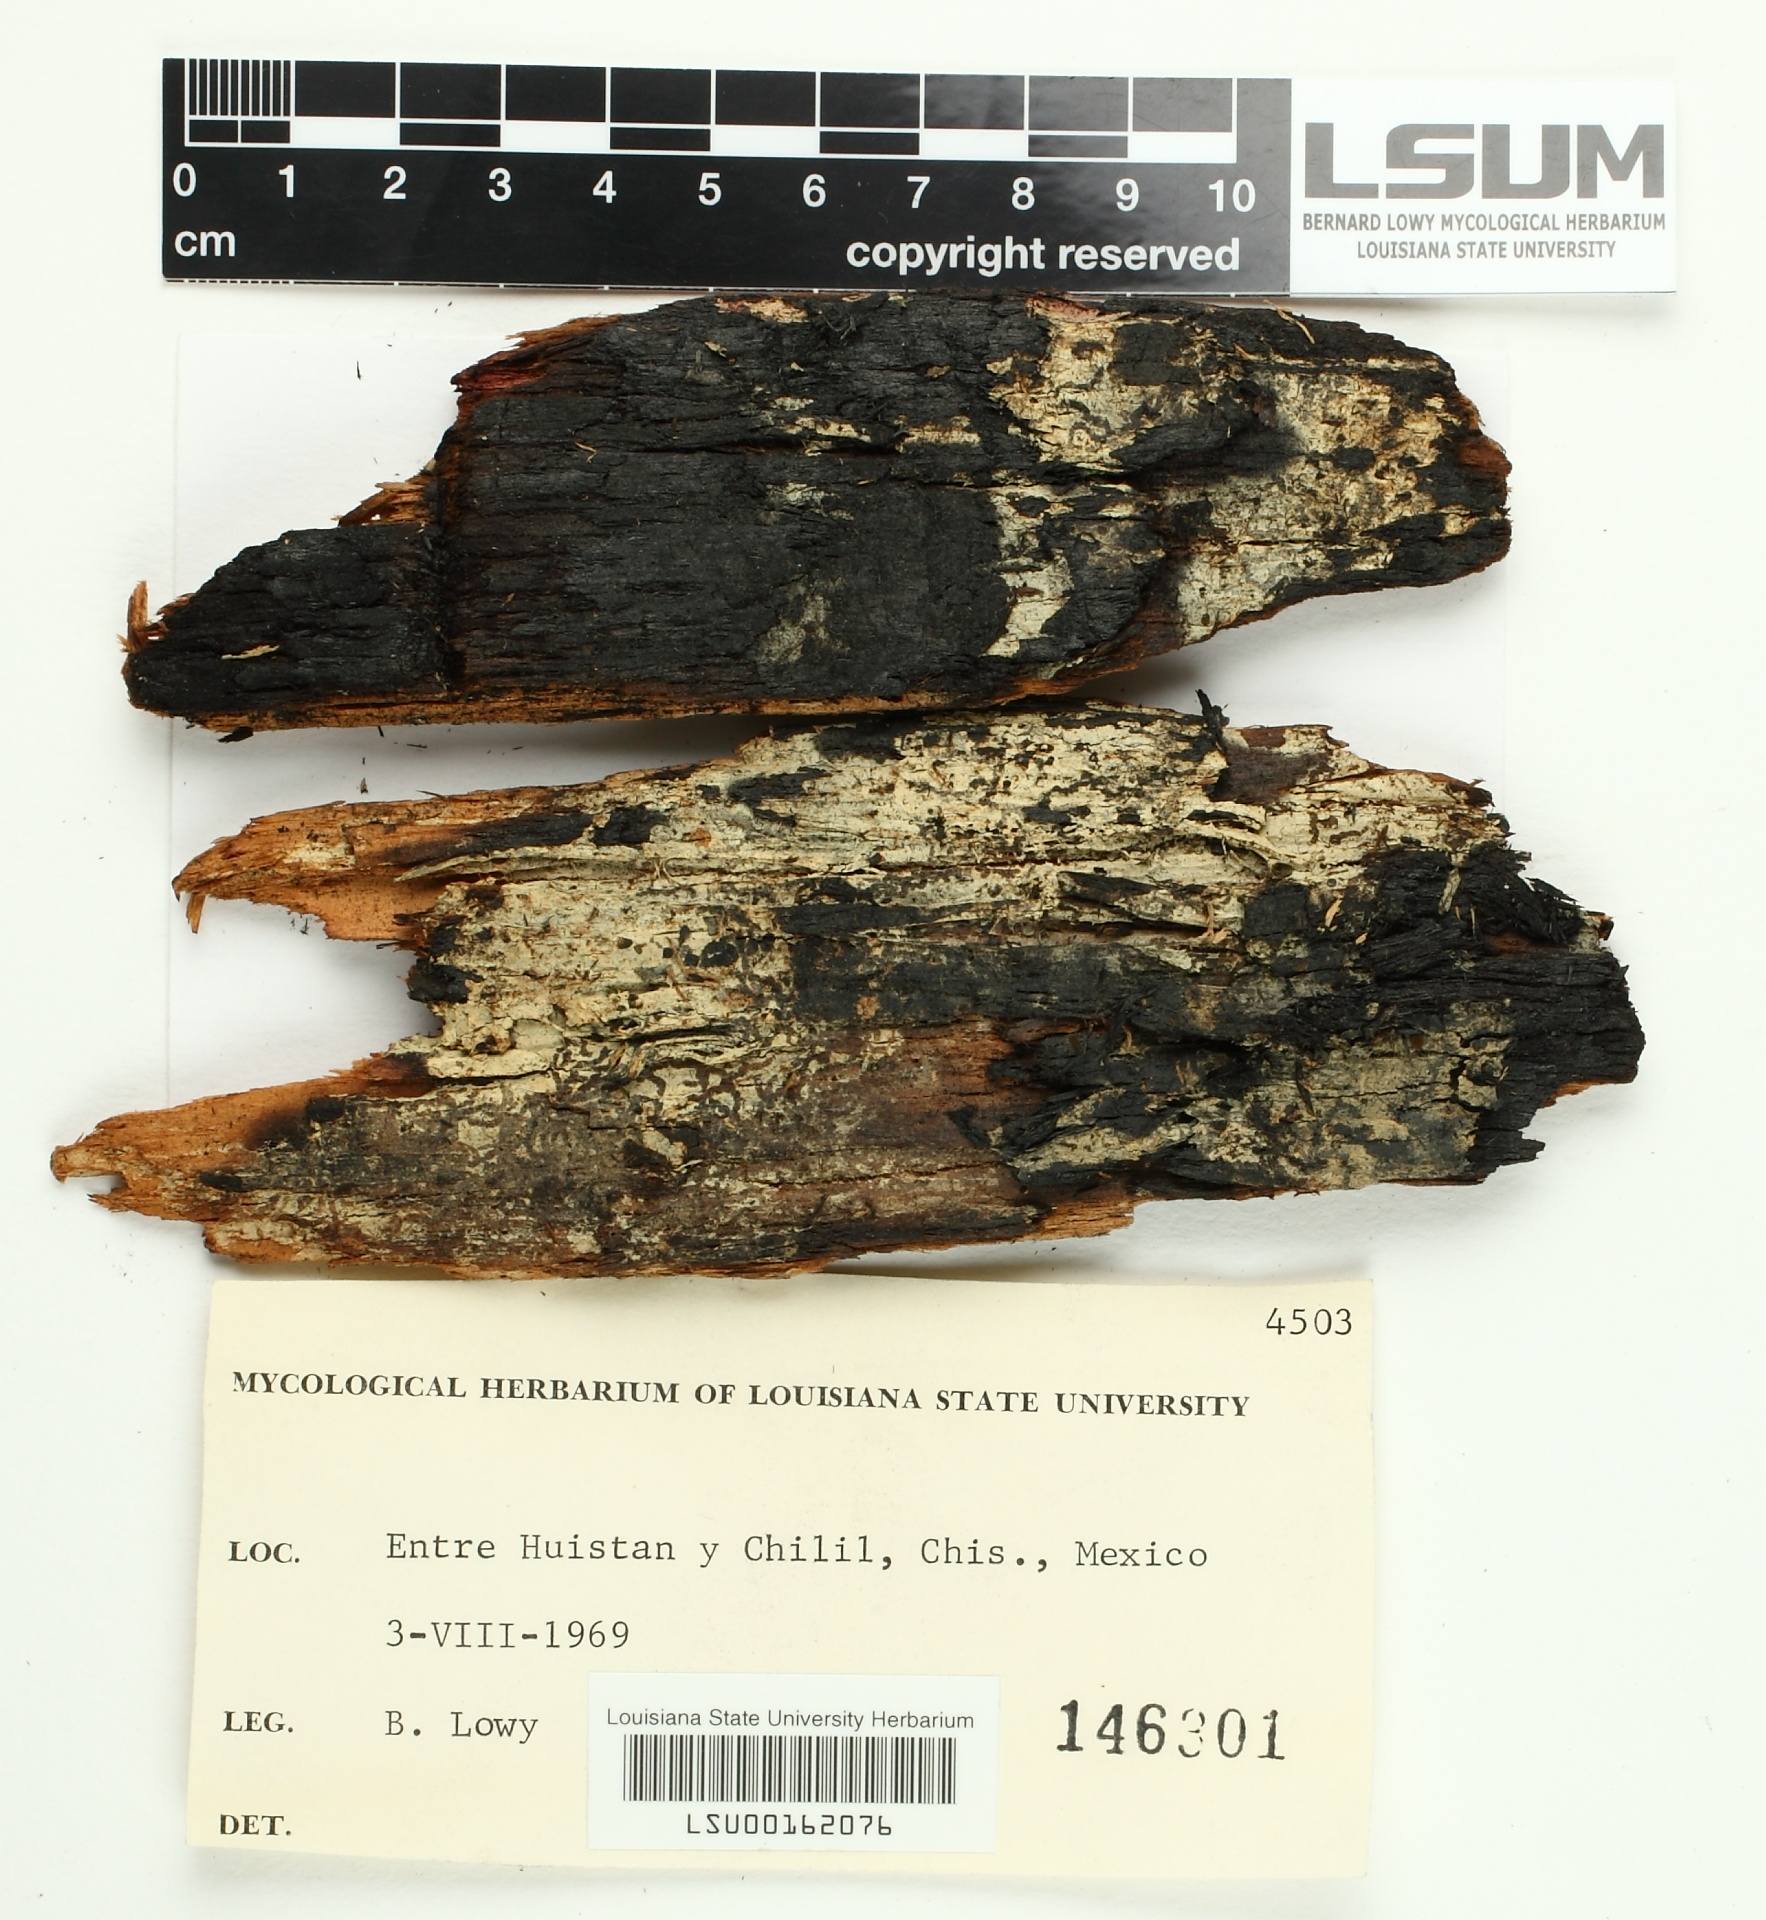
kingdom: Fungi
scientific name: Fungi
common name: Fungi
